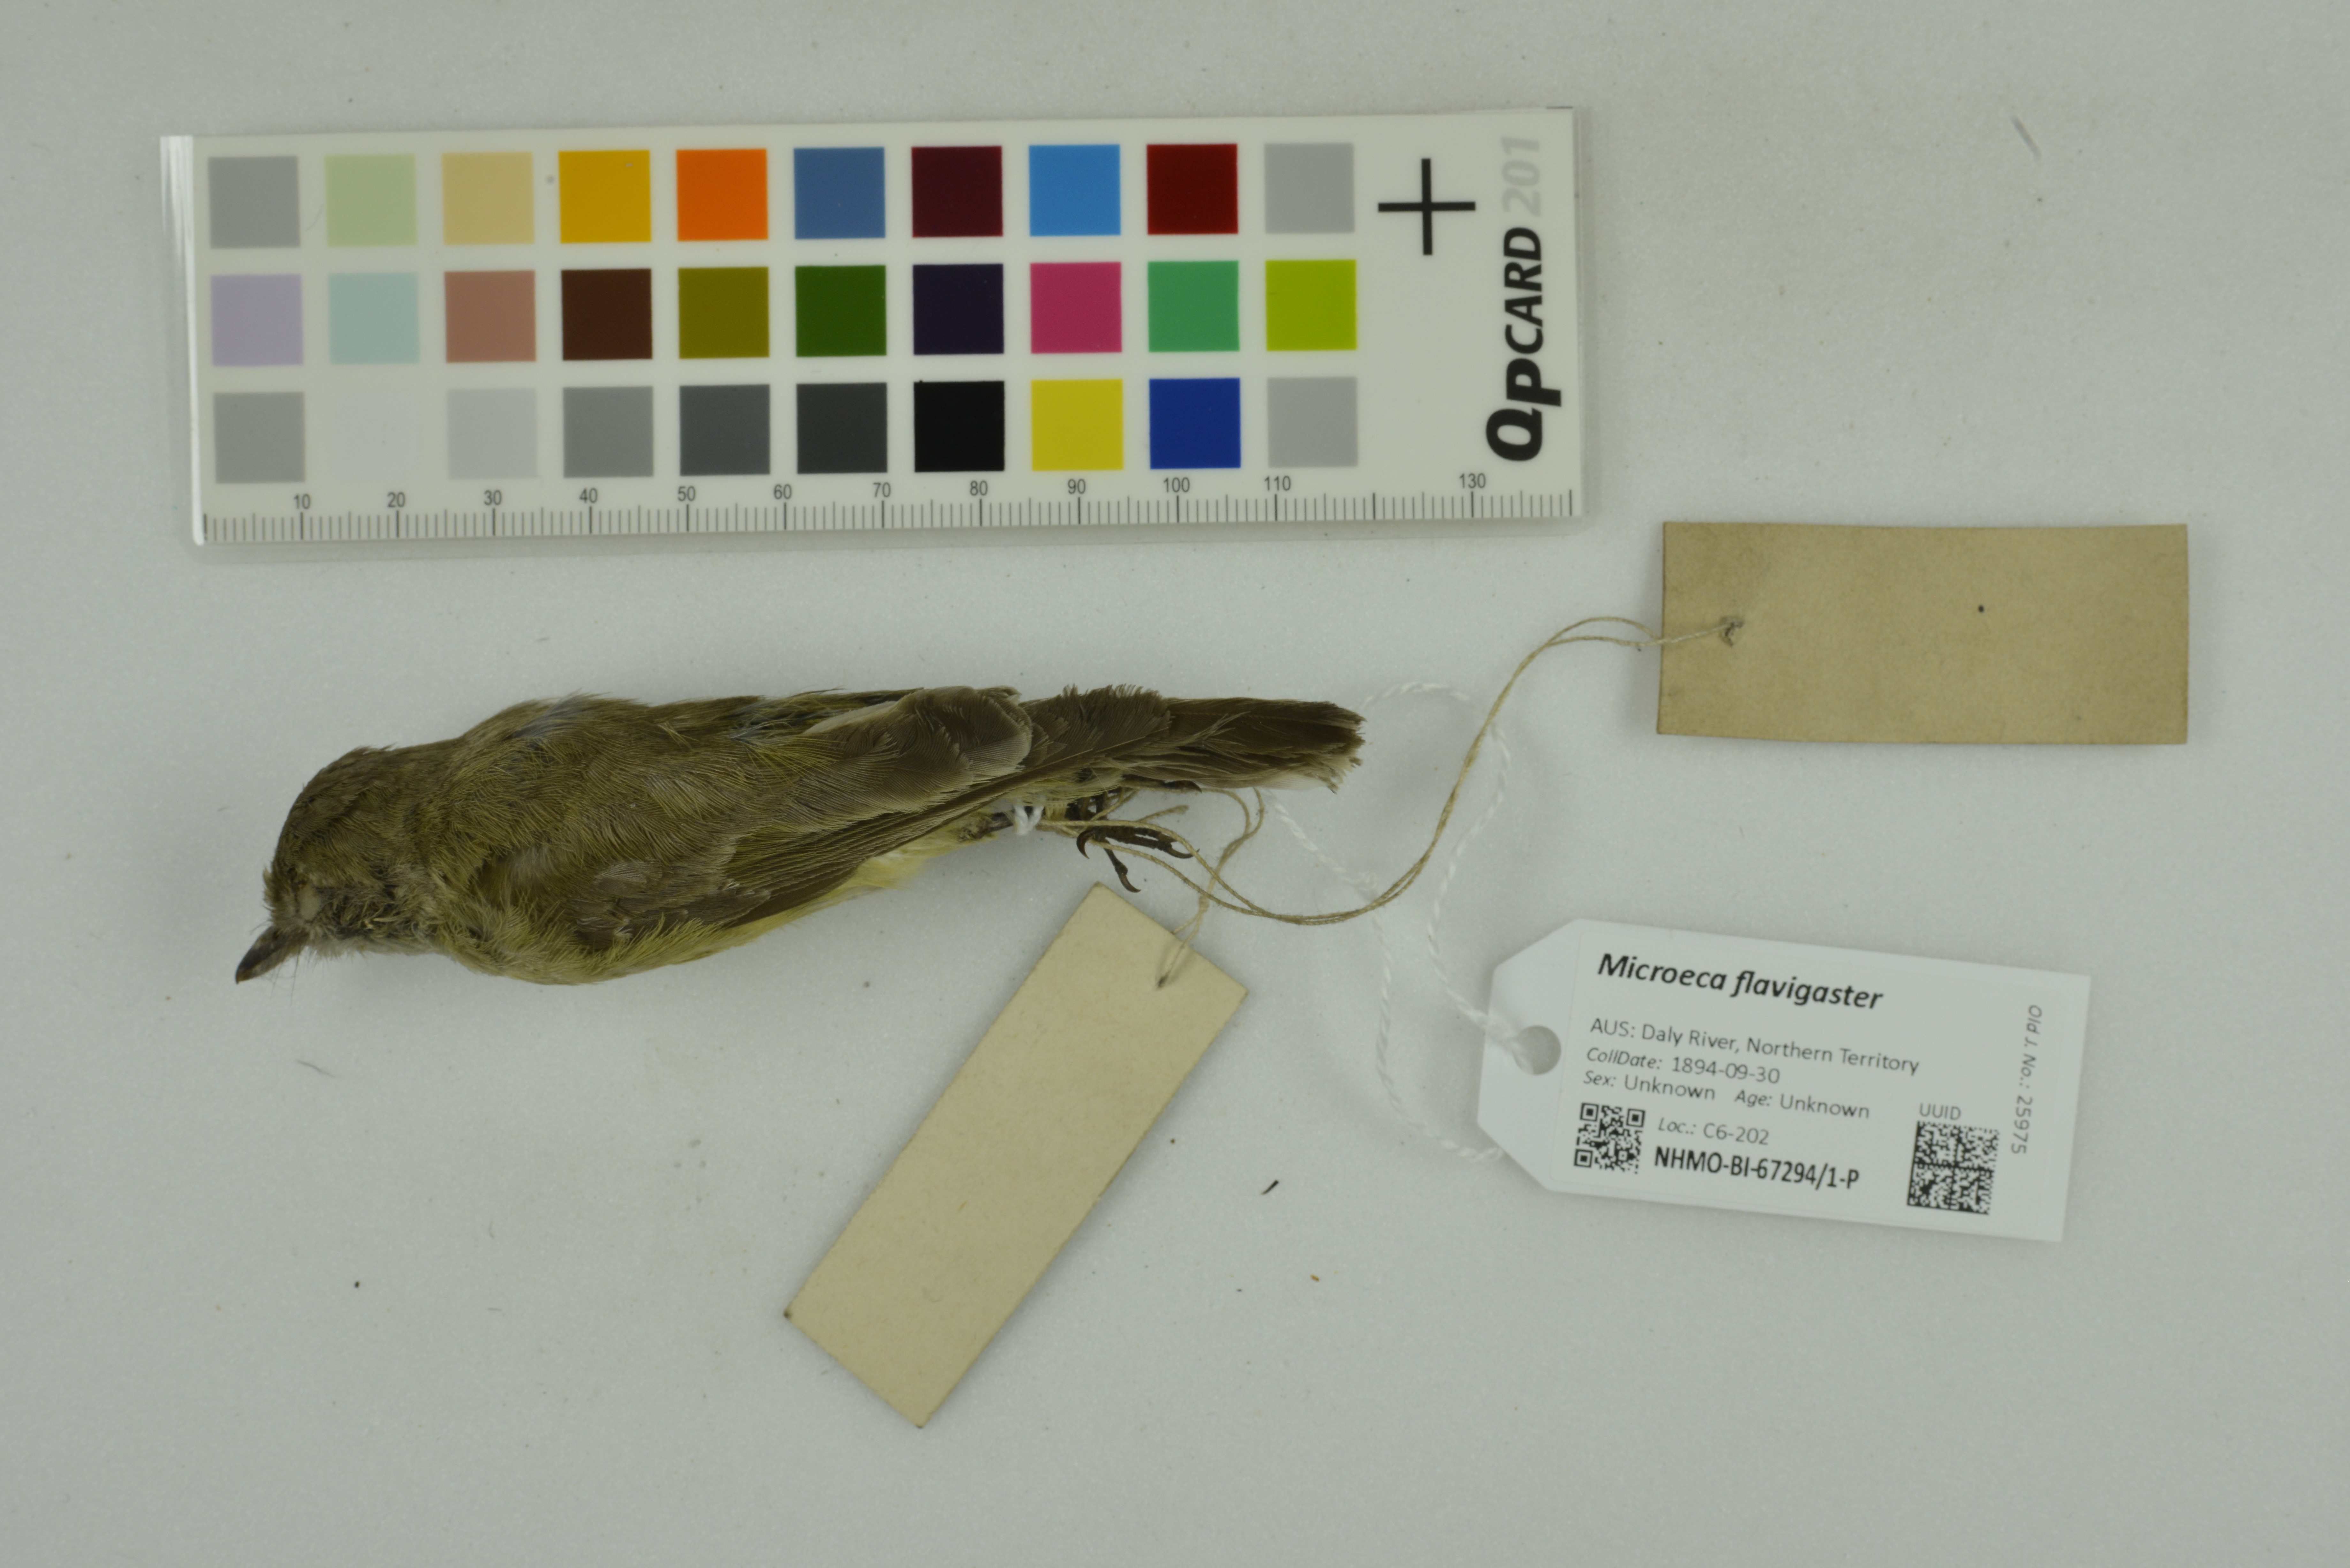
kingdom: Animalia
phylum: Chordata
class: Aves
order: Passeriformes
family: Petroicidae
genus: Microeca
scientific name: Microeca flavigaster
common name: Lemon-bellied flyrobin
